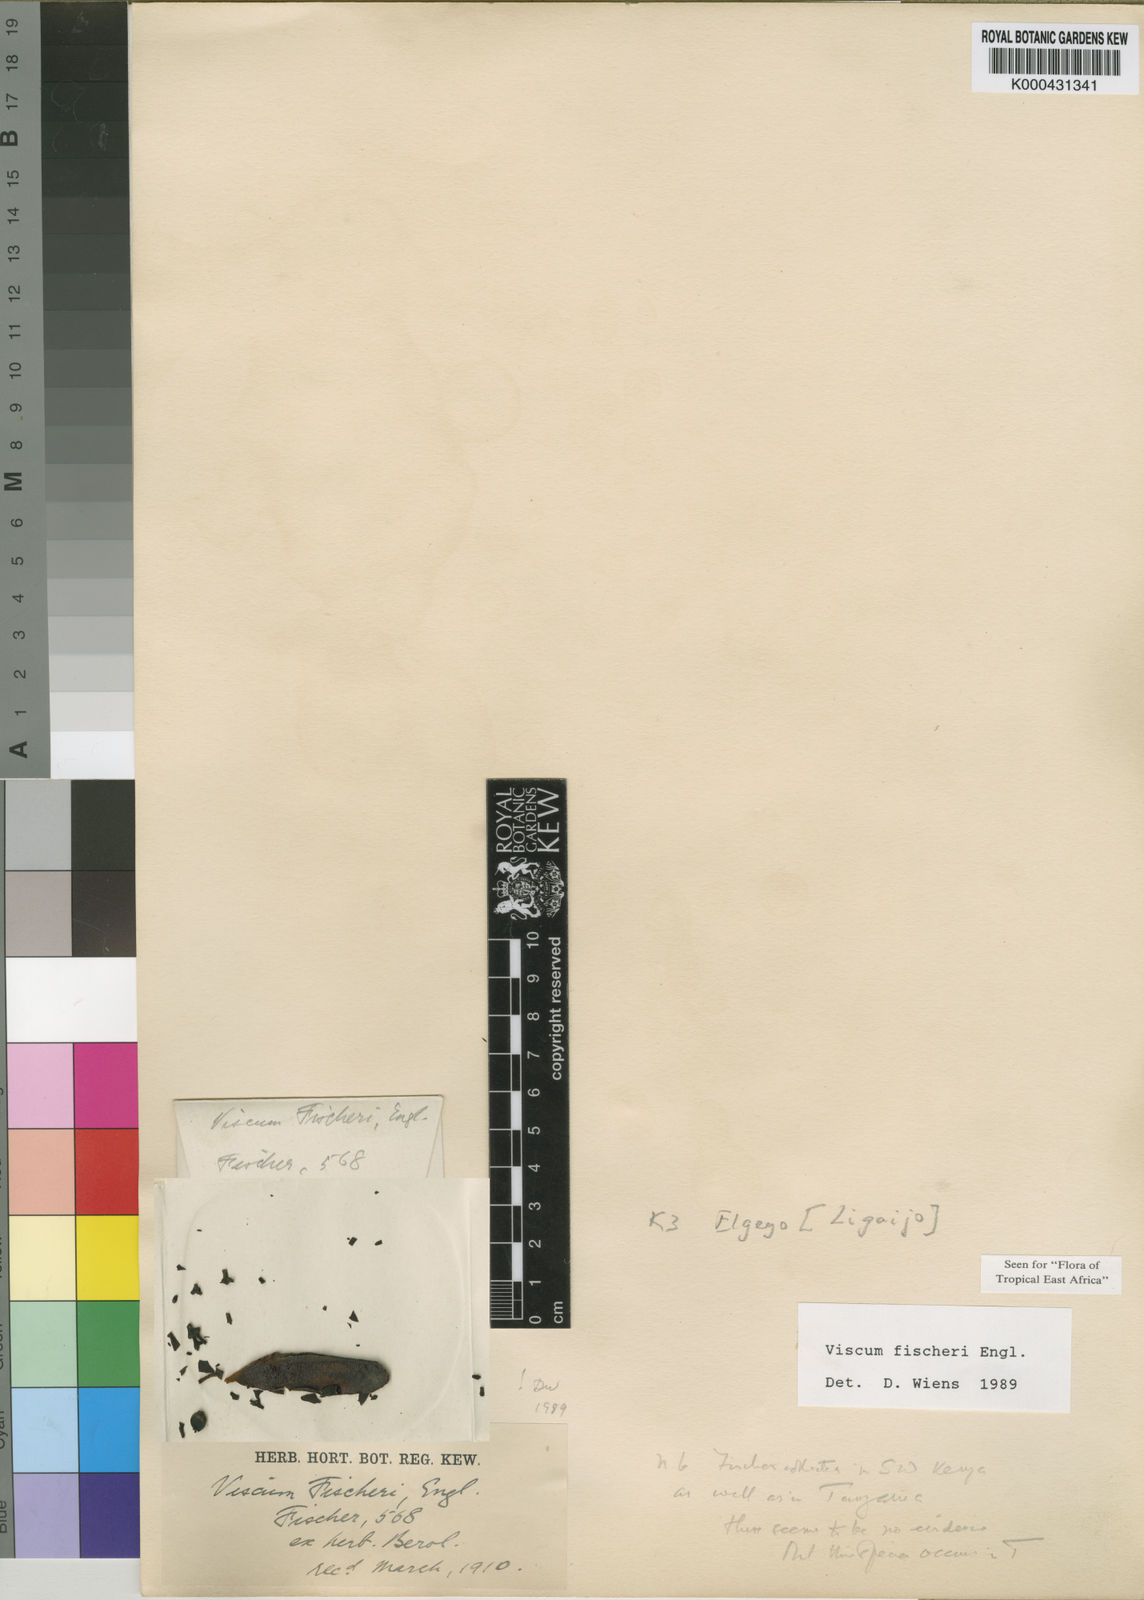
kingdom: Plantae
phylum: Tracheophyta
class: Magnoliopsida
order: Santalales
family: Viscaceae
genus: Viscum
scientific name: Viscum fischeri
